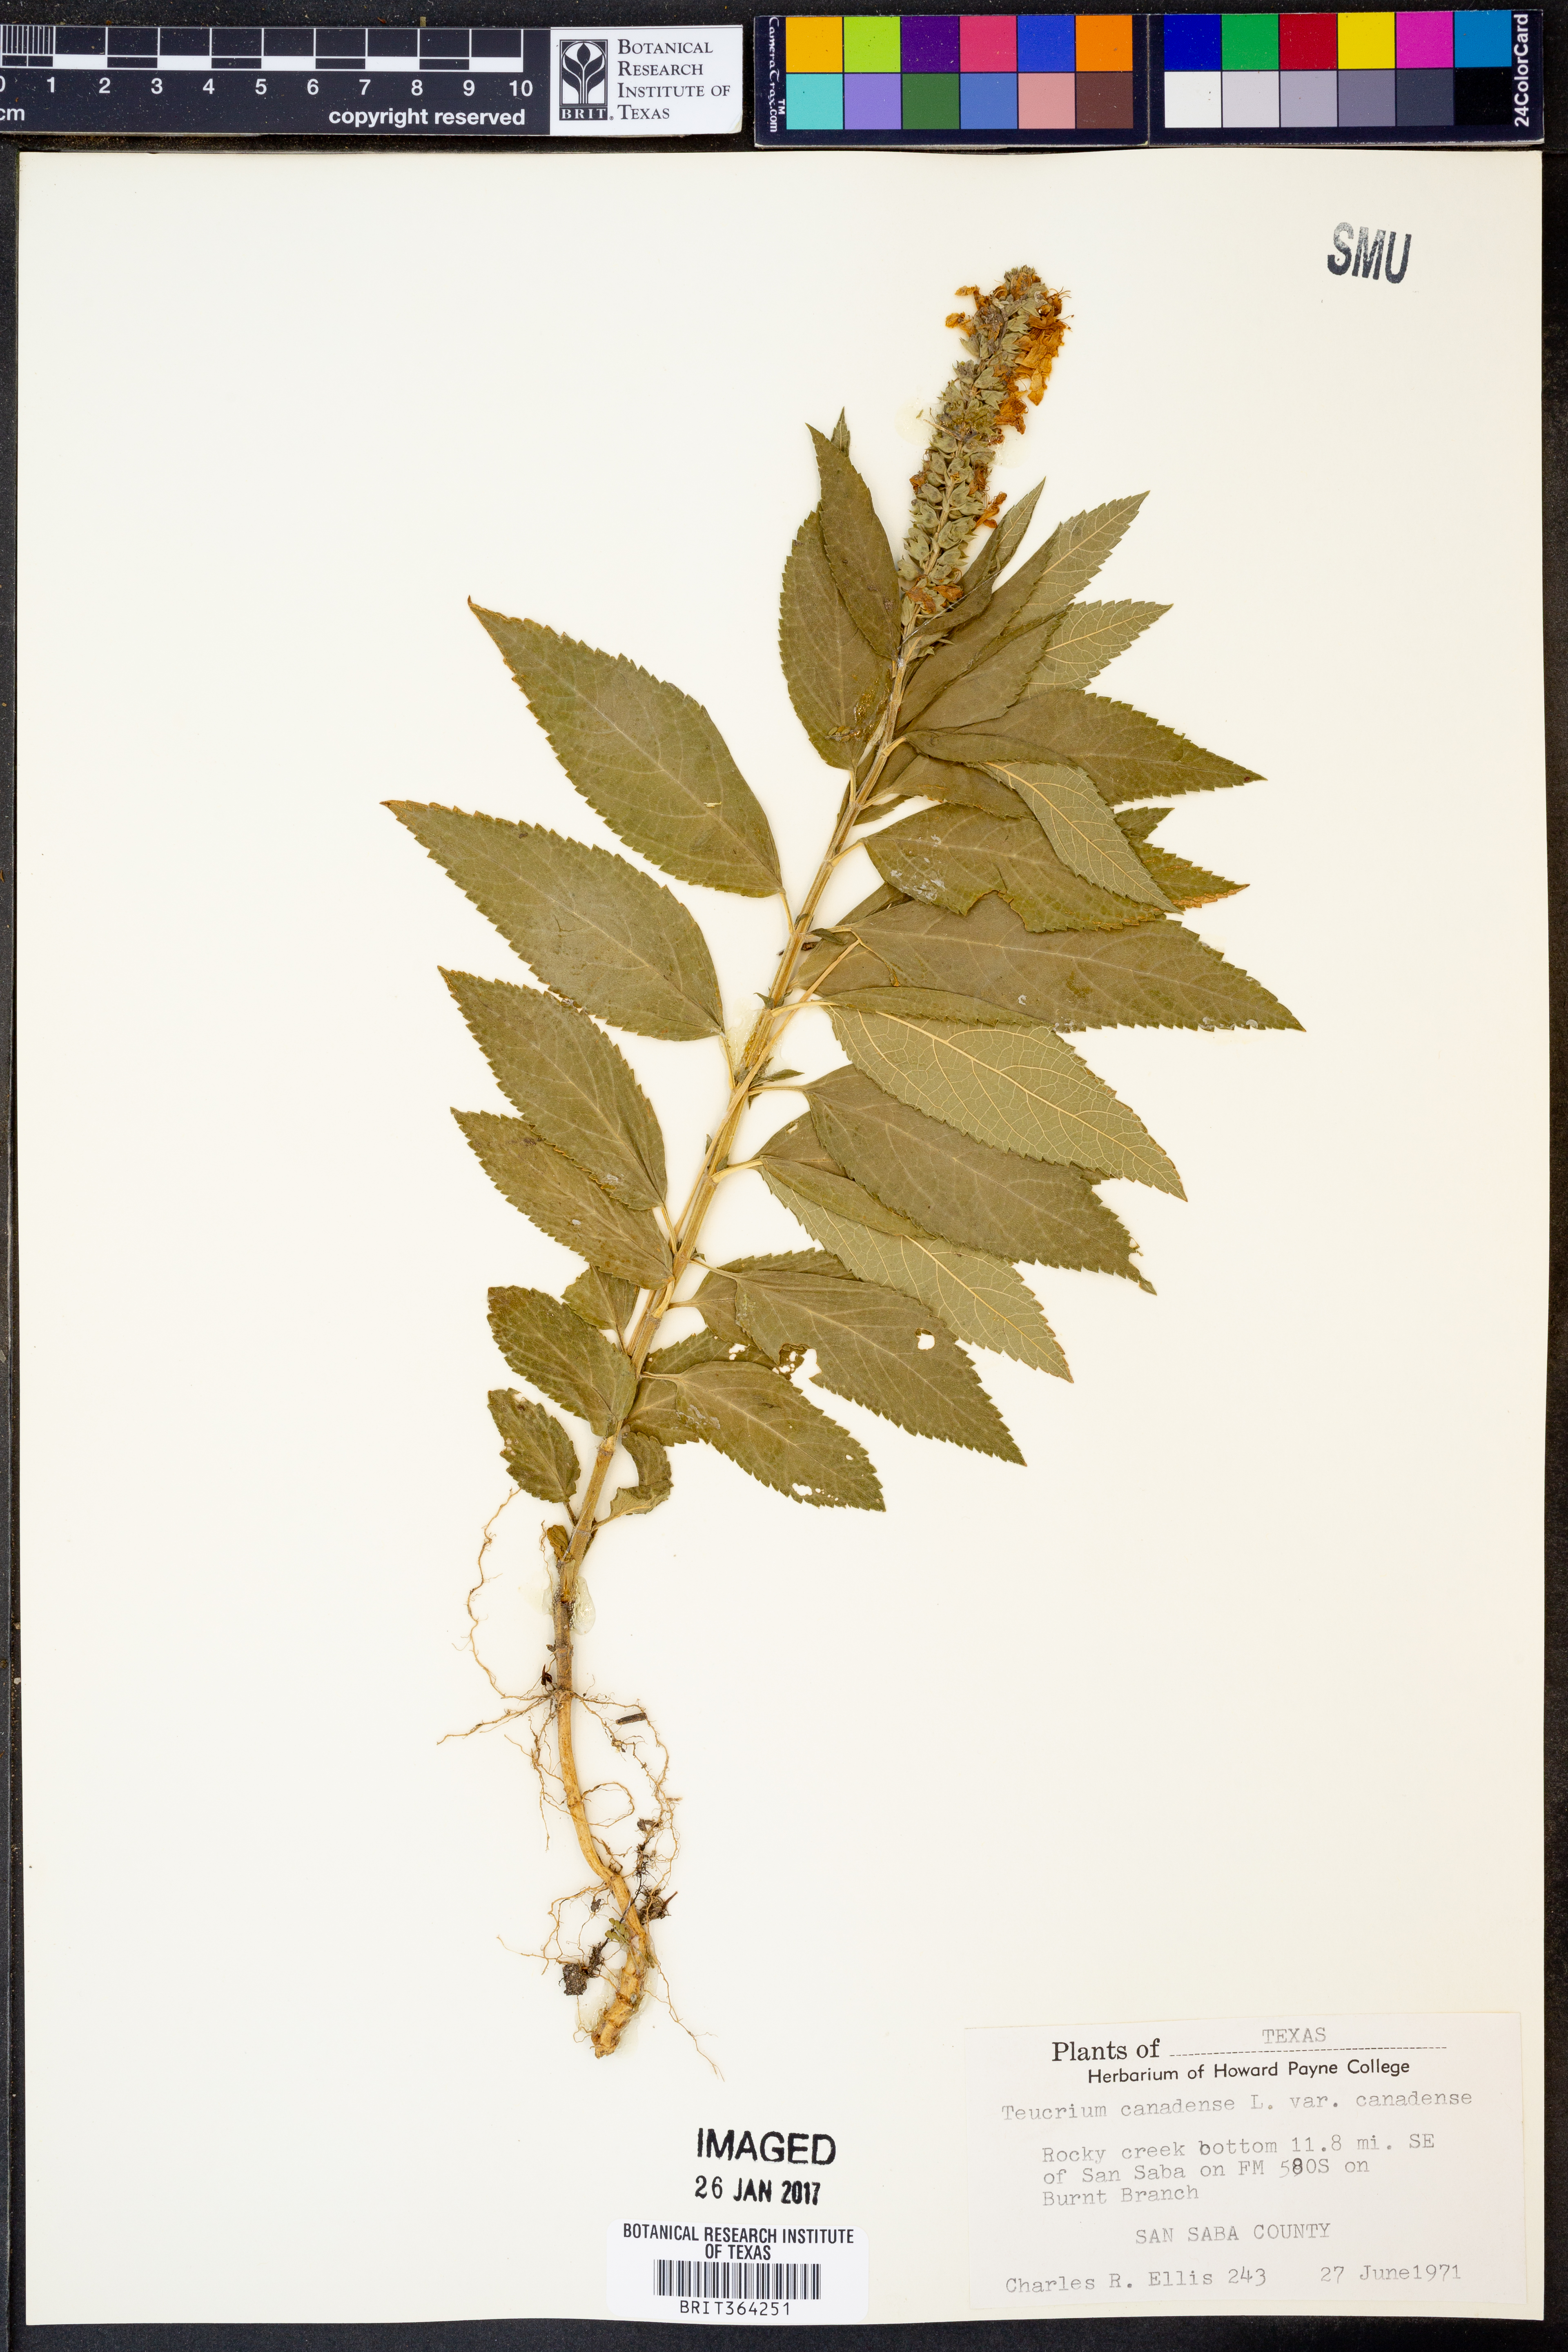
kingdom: Plantae
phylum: Tracheophyta
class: Magnoliopsida
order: Lamiales
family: Lamiaceae
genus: Teucrium
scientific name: Teucrium canadense
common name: American germander
